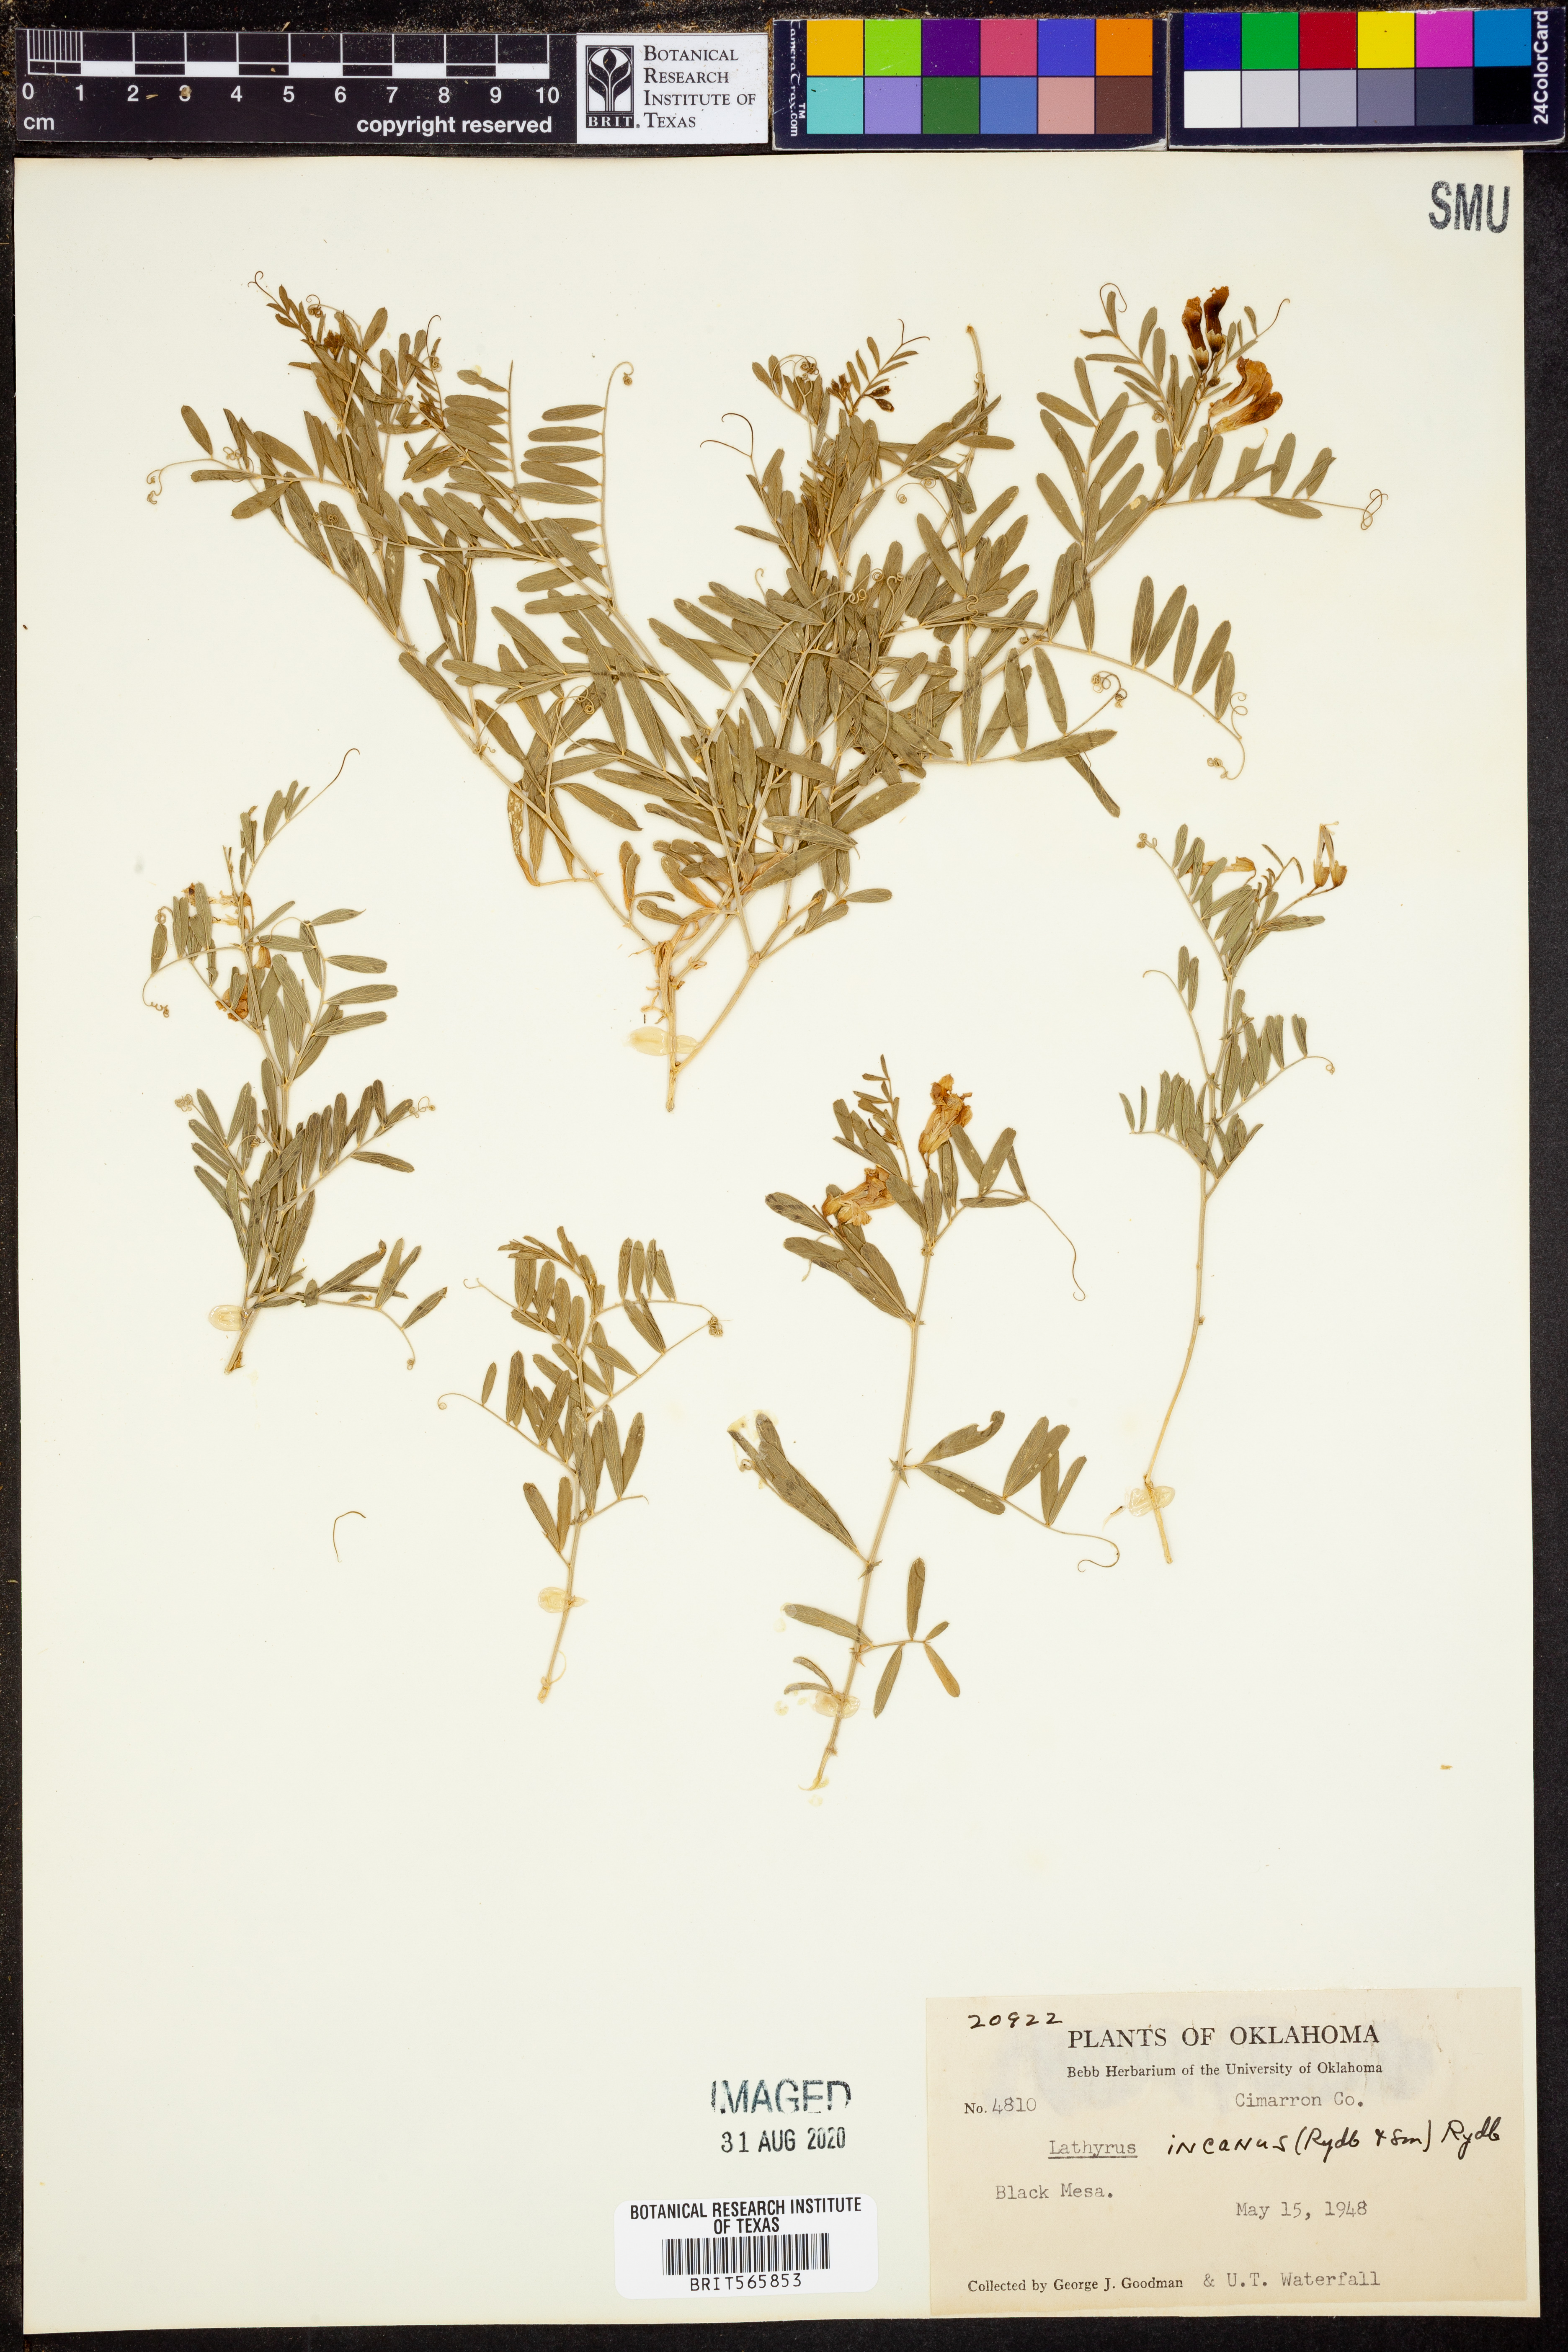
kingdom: Plantae
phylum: Tracheophyta
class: Magnoliopsida
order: Fabales
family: Fabaceae
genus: Lathyrus
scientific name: Lathyrus decaphyllus
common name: Prairie vetchling
